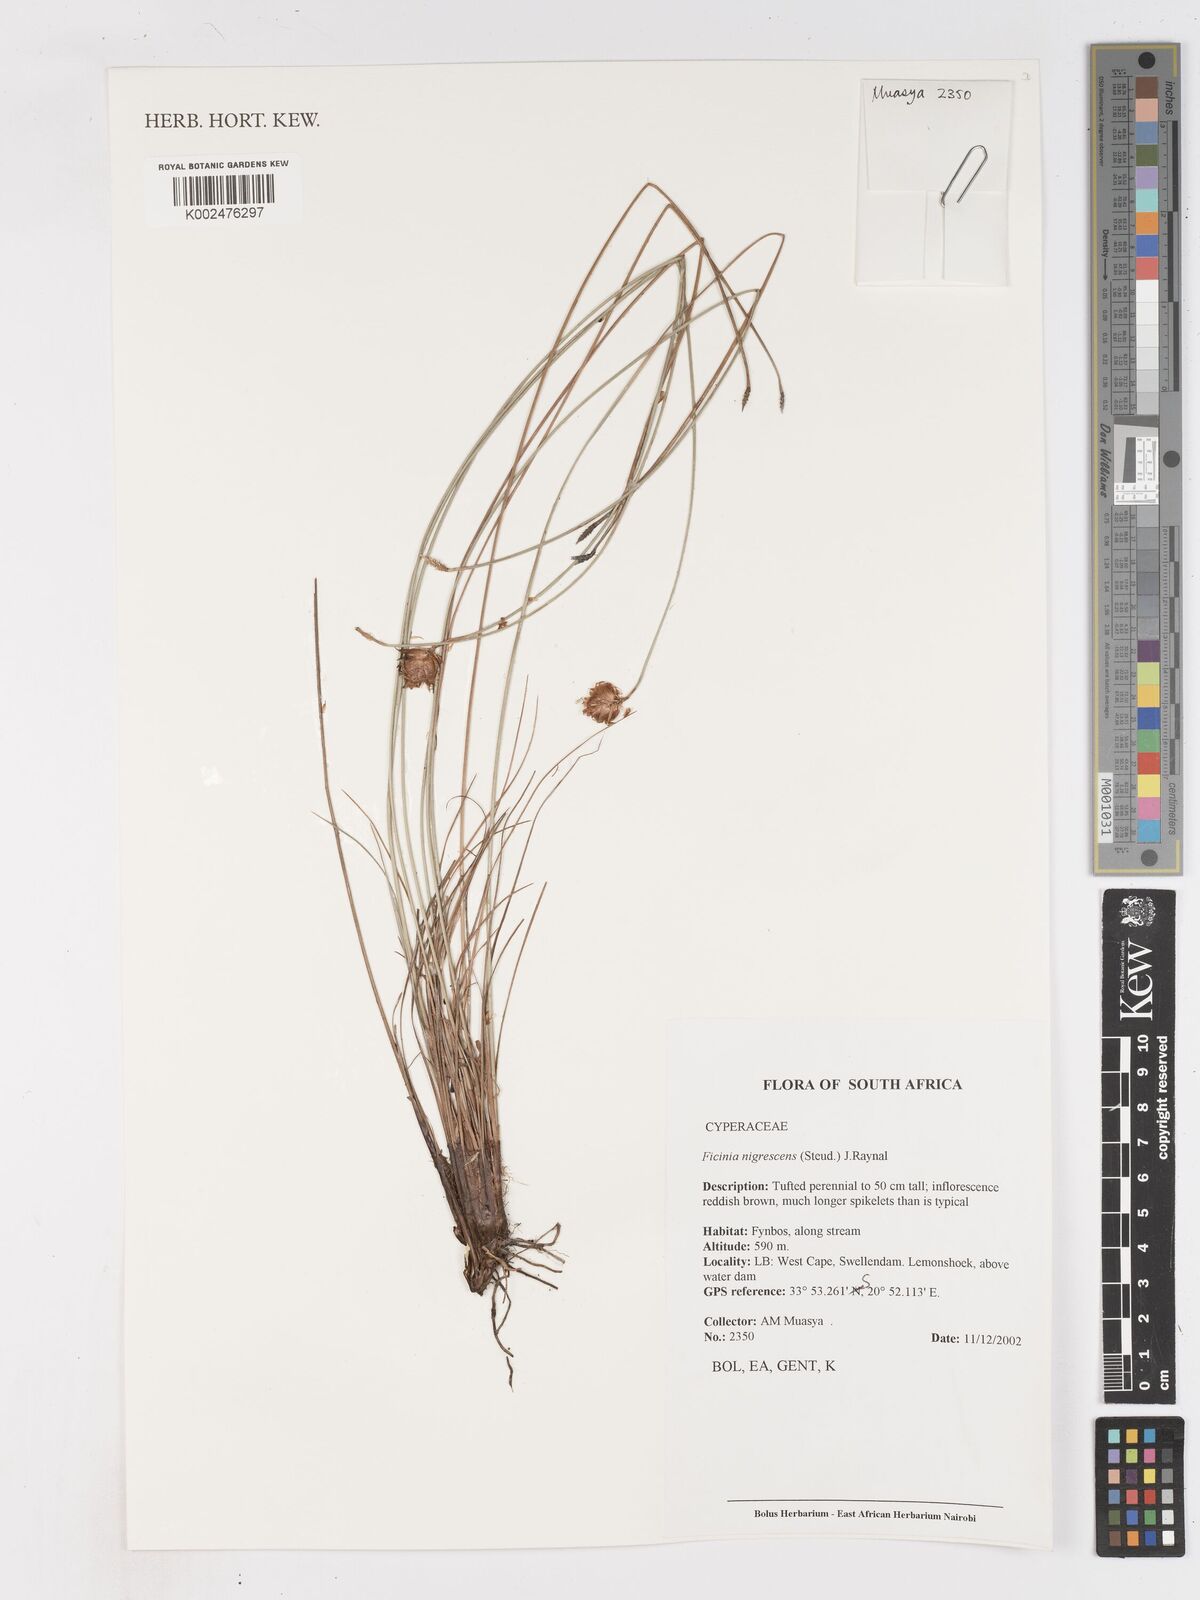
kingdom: Plantae
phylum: Tracheophyta
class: Liliopsida
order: Poales
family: Cyperaceae
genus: Ficinia
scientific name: Ficinia nigrescens
